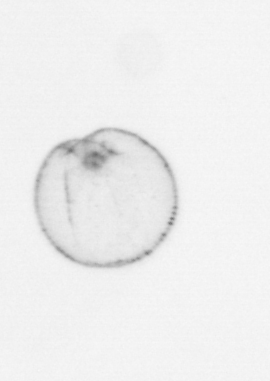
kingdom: Chromista
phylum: Myzozoa
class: Dinophyceae
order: Noctilucales
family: Noctilucaceae
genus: Noctiluca
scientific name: Noctiluca scintillans
